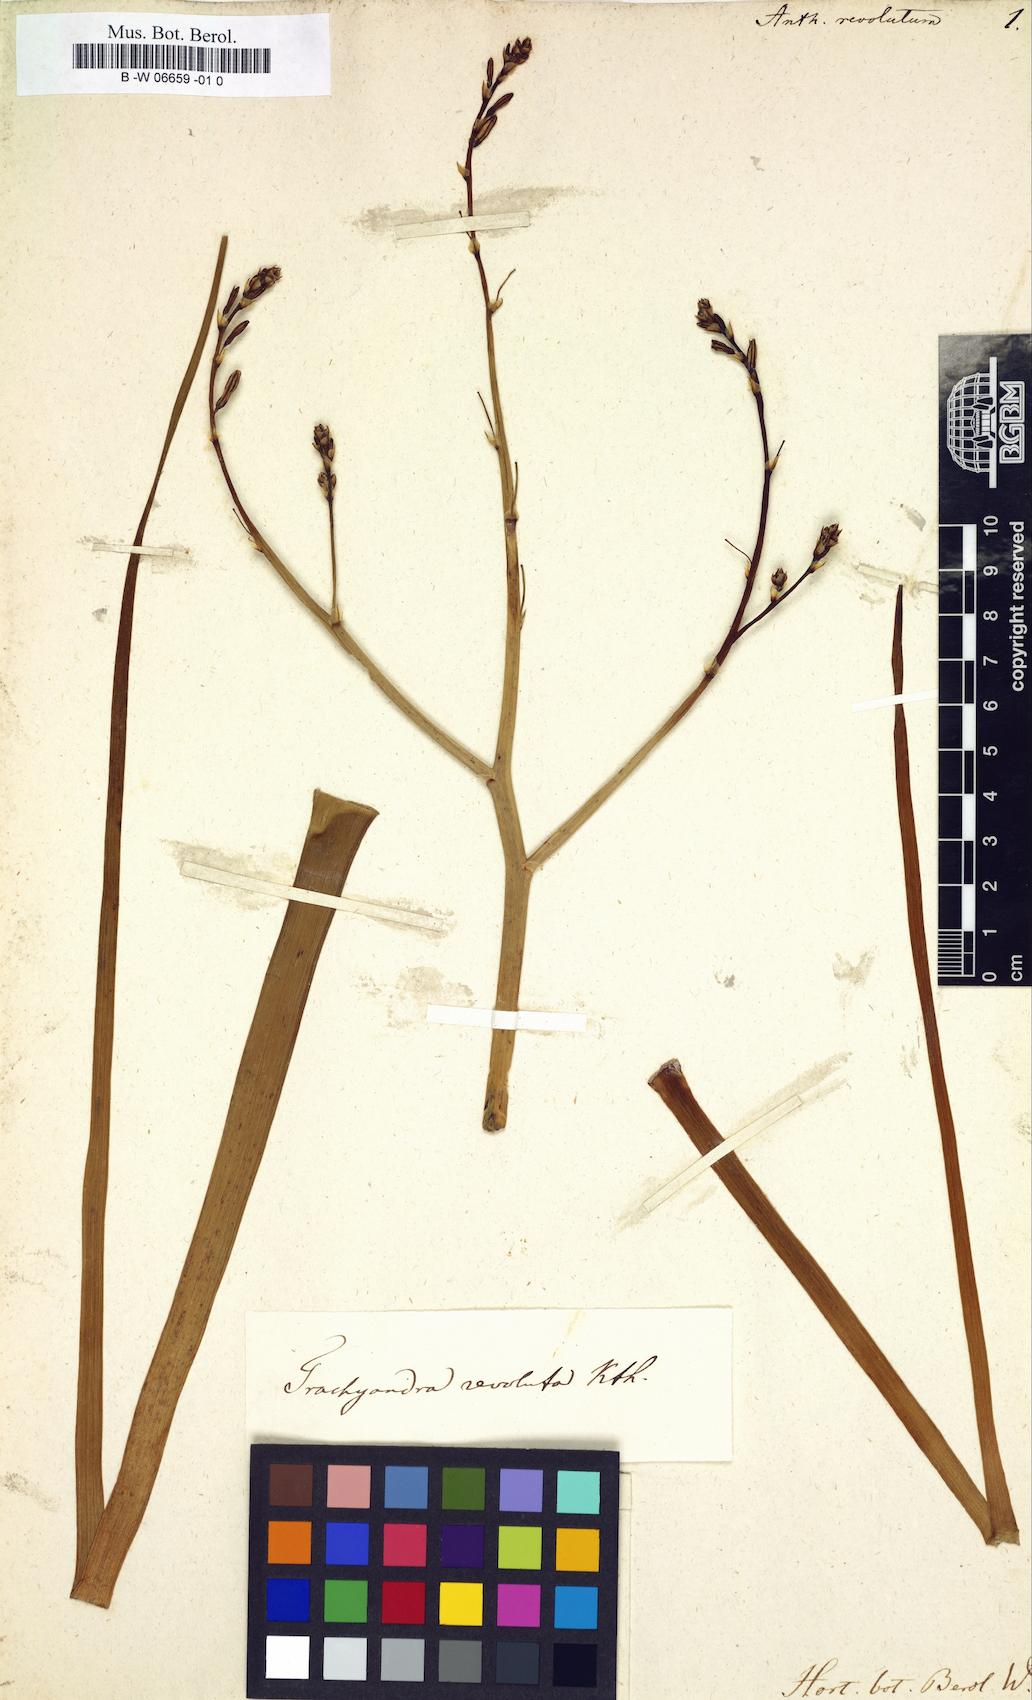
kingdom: Plantae
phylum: Tracheophyta
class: Liliopsida
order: Asparagales
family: Asphodelaceae
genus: Trachyandra
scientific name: Trachyandra revoluta
